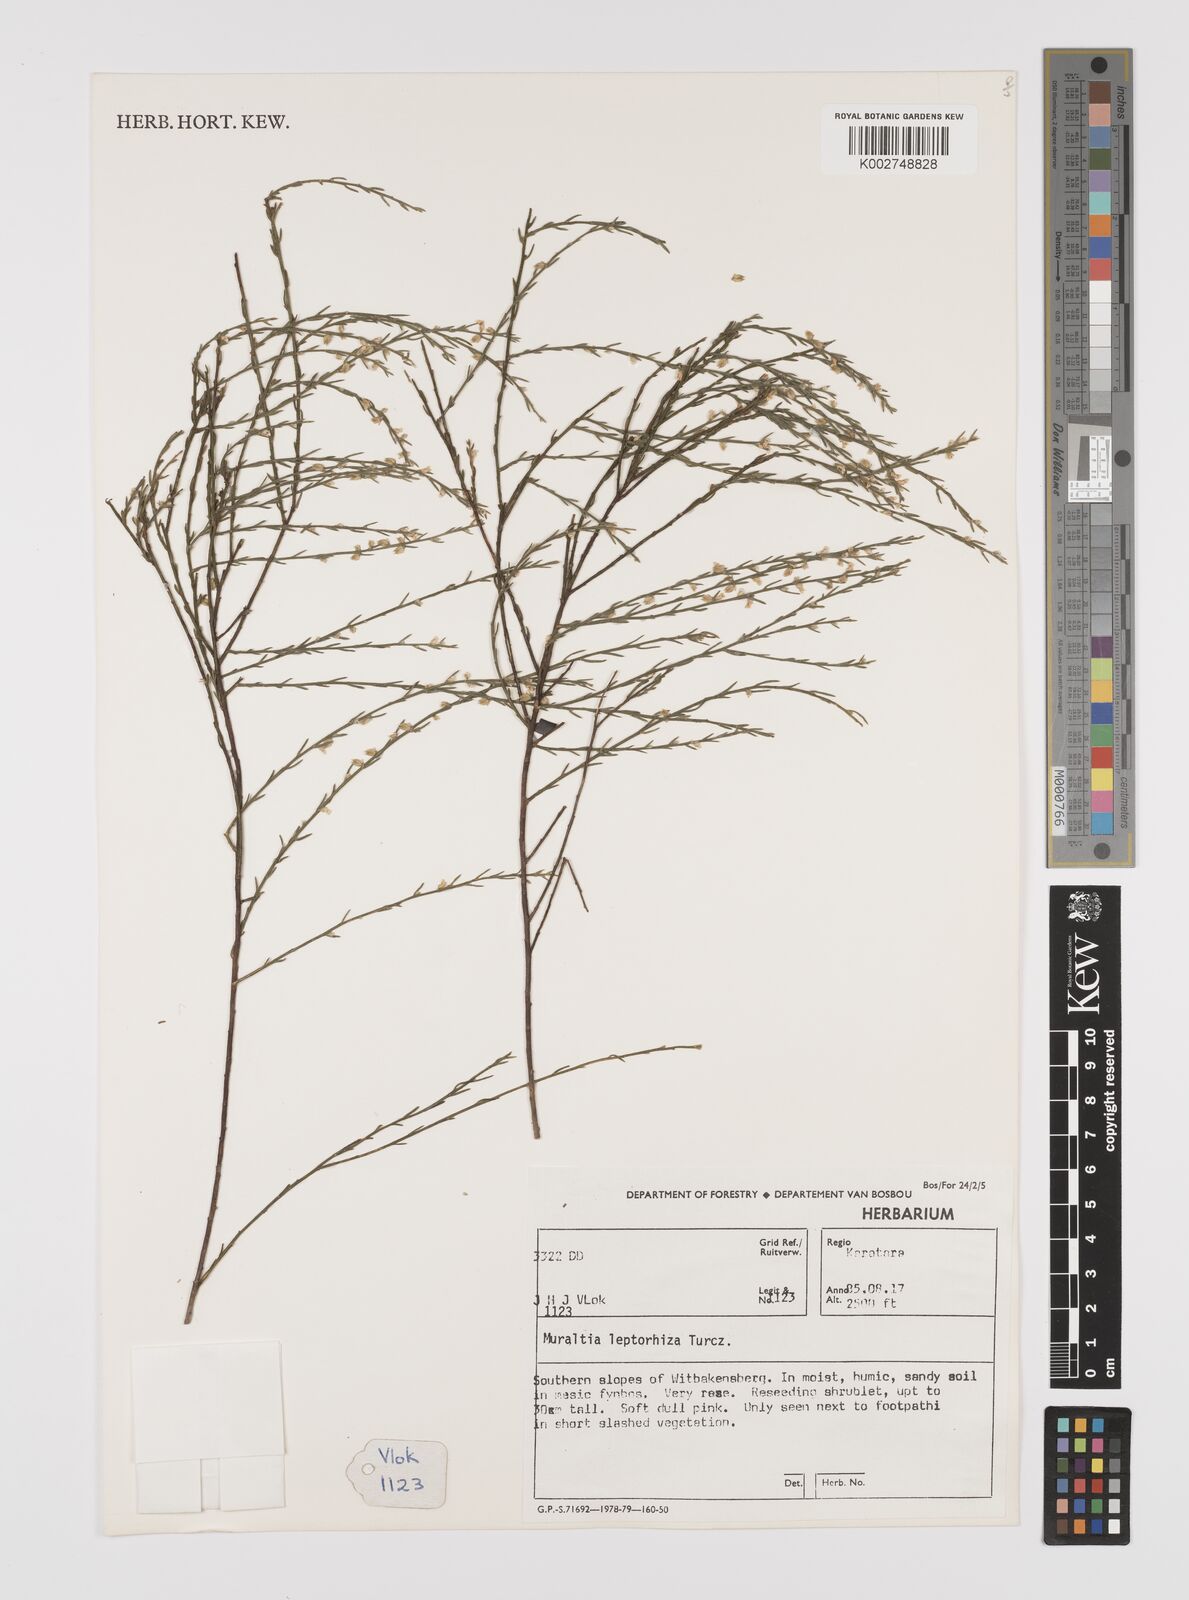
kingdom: Plantae
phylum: Tracheophyta
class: Magnoliopsida
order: Fabales
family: Polygalaceae
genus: Muraltia
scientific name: Muraltia leptorhiza
